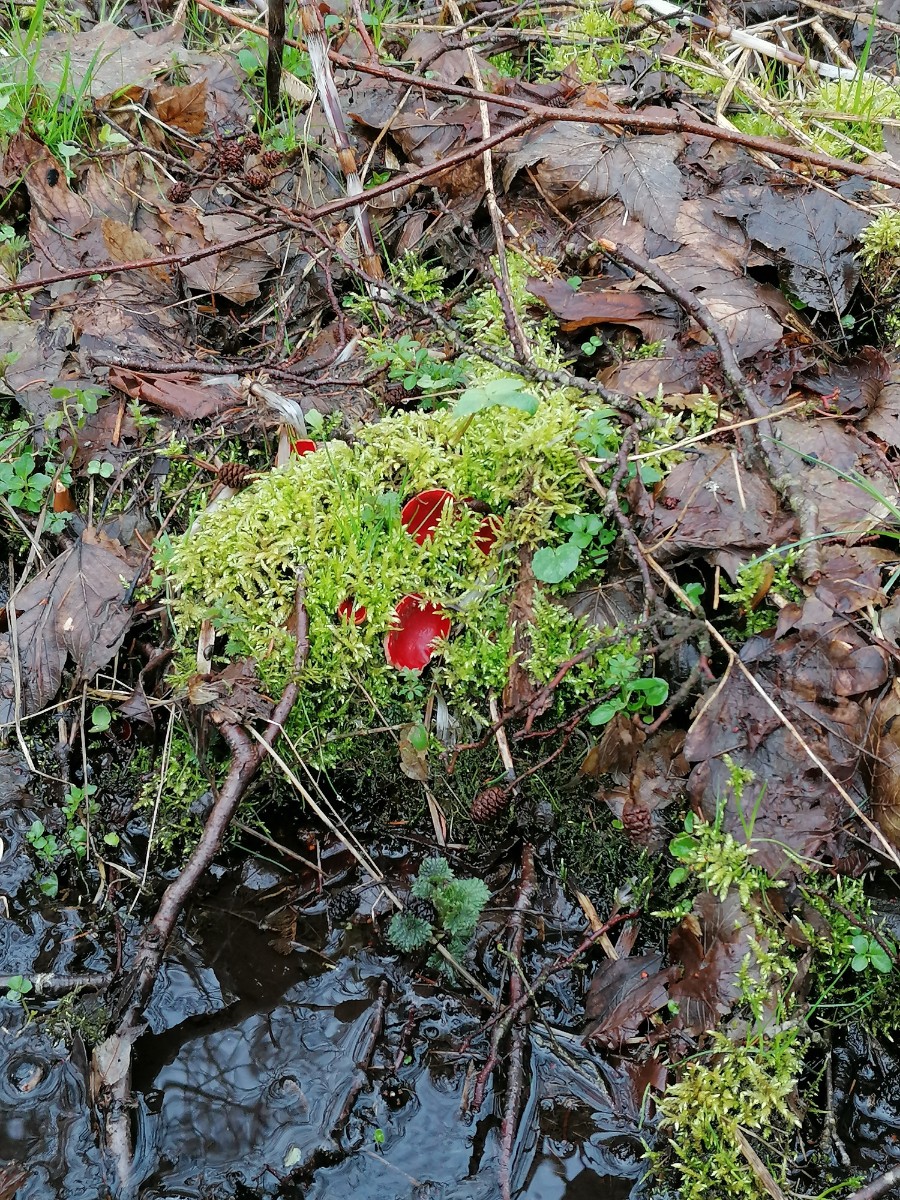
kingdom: Fungi
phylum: Ascomycota
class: Pezizomycetes
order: Pezizales
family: Sarcoscyphaceae
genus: Sarcoscypha
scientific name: Sarcoscypha austriaca
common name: krølhåret pragtbæger
